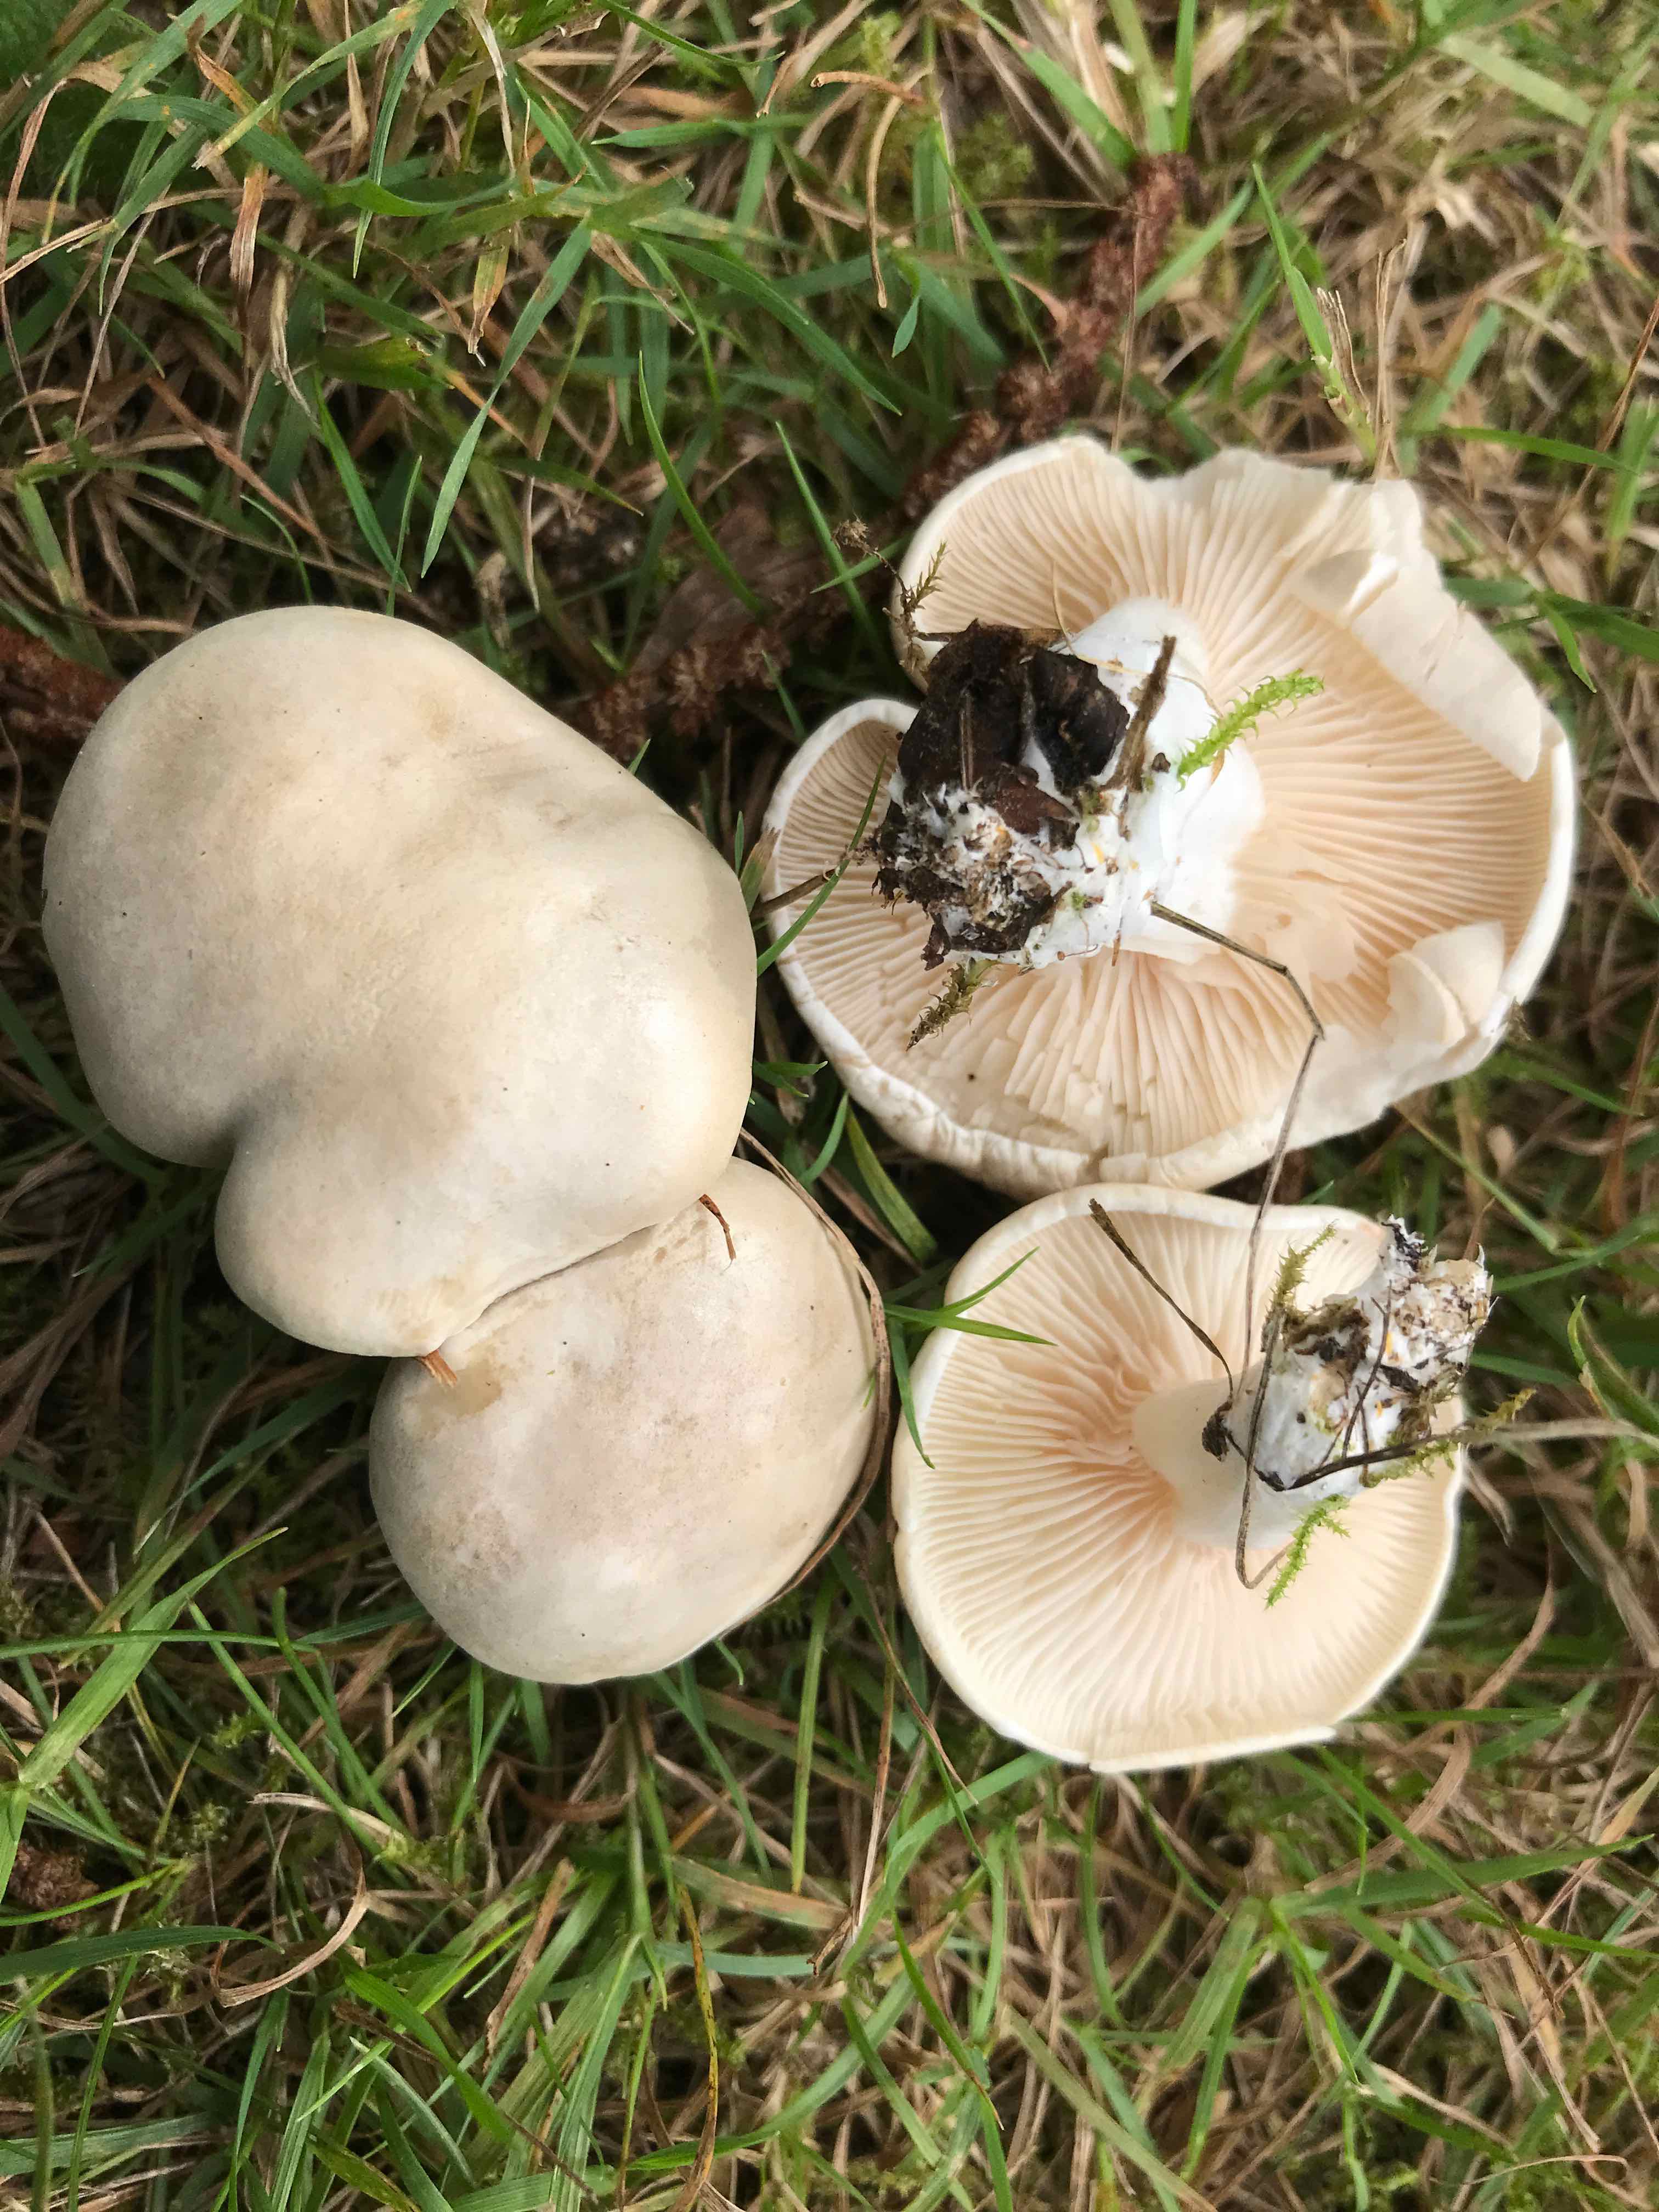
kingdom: Fungi
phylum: Basidiomycota
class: Agaricomycetes
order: Agaricales
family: Entolomataceae
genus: Clitopilus
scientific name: Clitopilus prunulus
